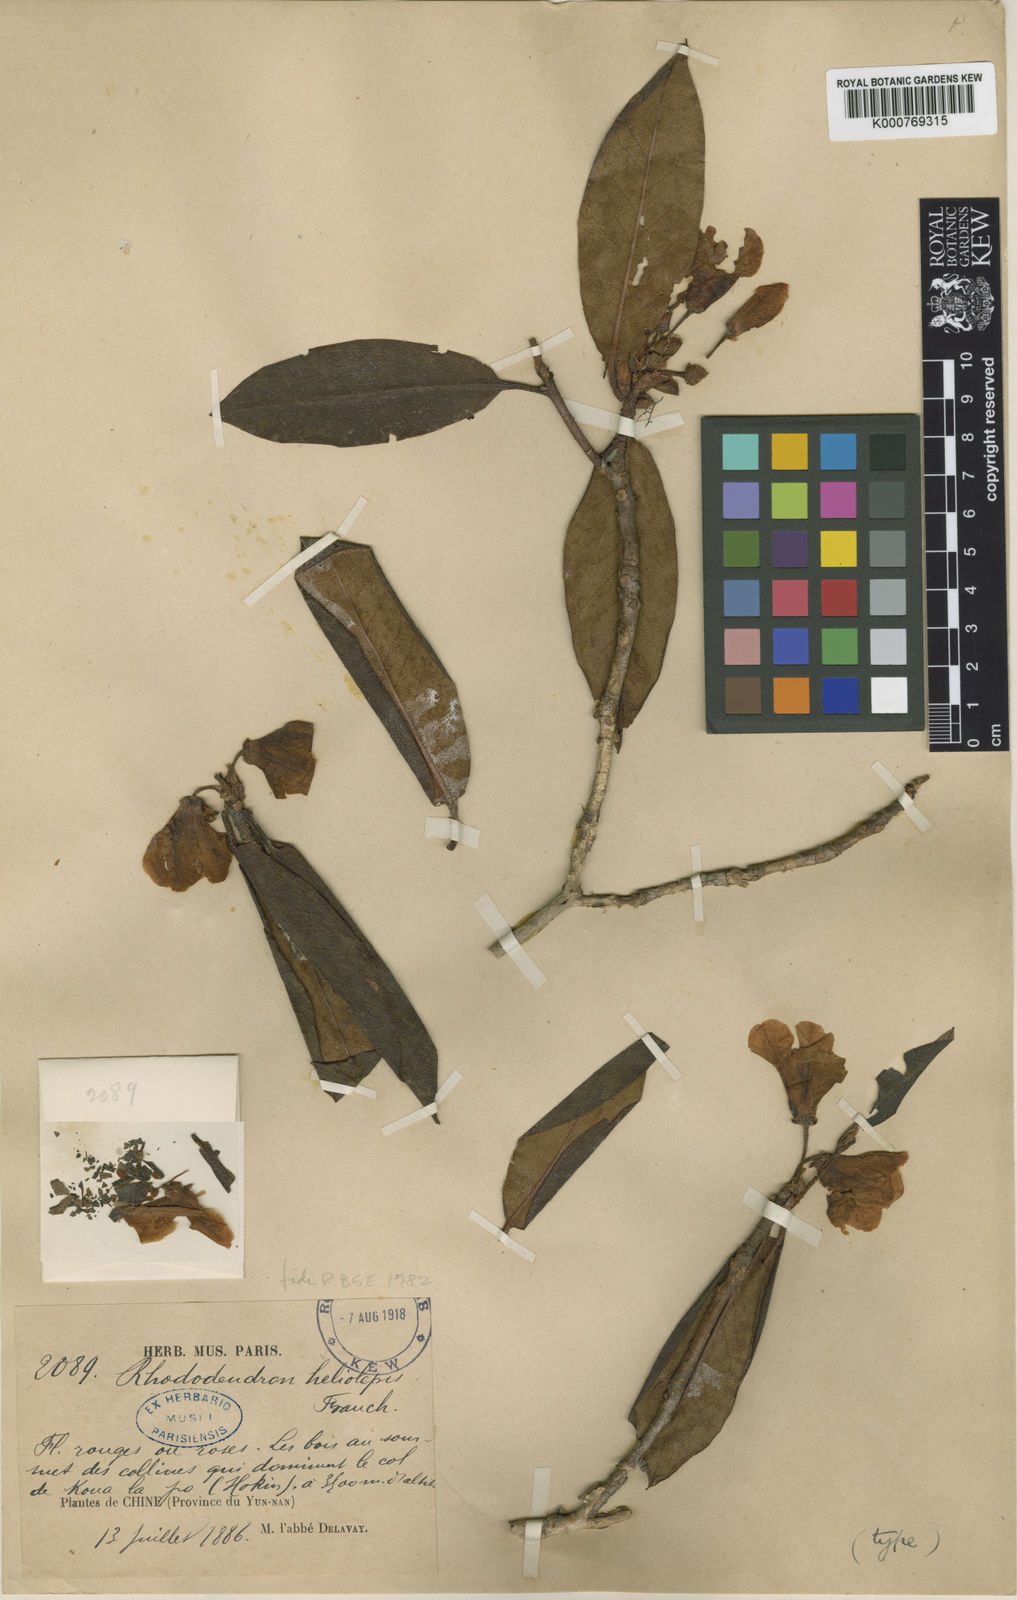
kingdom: Plantae
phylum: Tracheophyta
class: Magnoliopsida
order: Ericales
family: Ericaceae
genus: Rhododendron
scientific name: Rhododendron heliolepis
